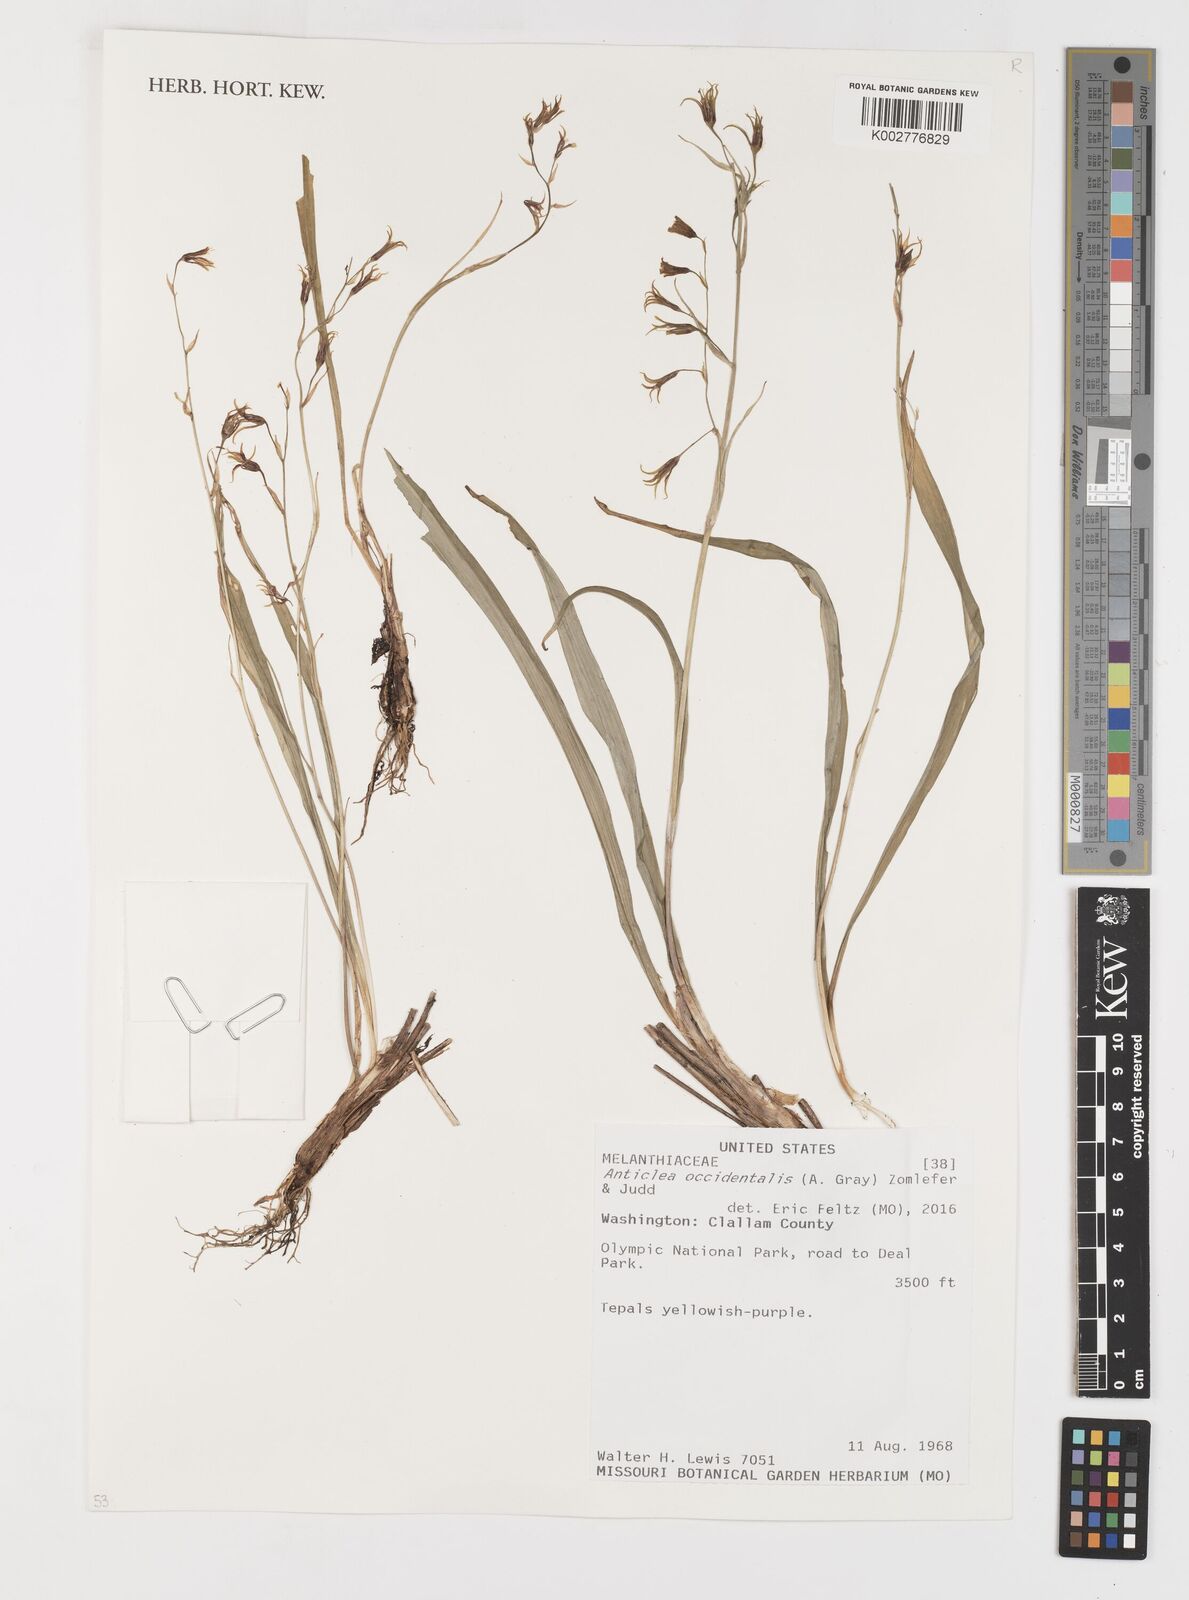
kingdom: Plantae
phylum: Tracheophyta
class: Liliopsida
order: Liliales
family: Melanthiaceae
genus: Anticlea
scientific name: Anticlea occidentalis
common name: Bronze-bells
